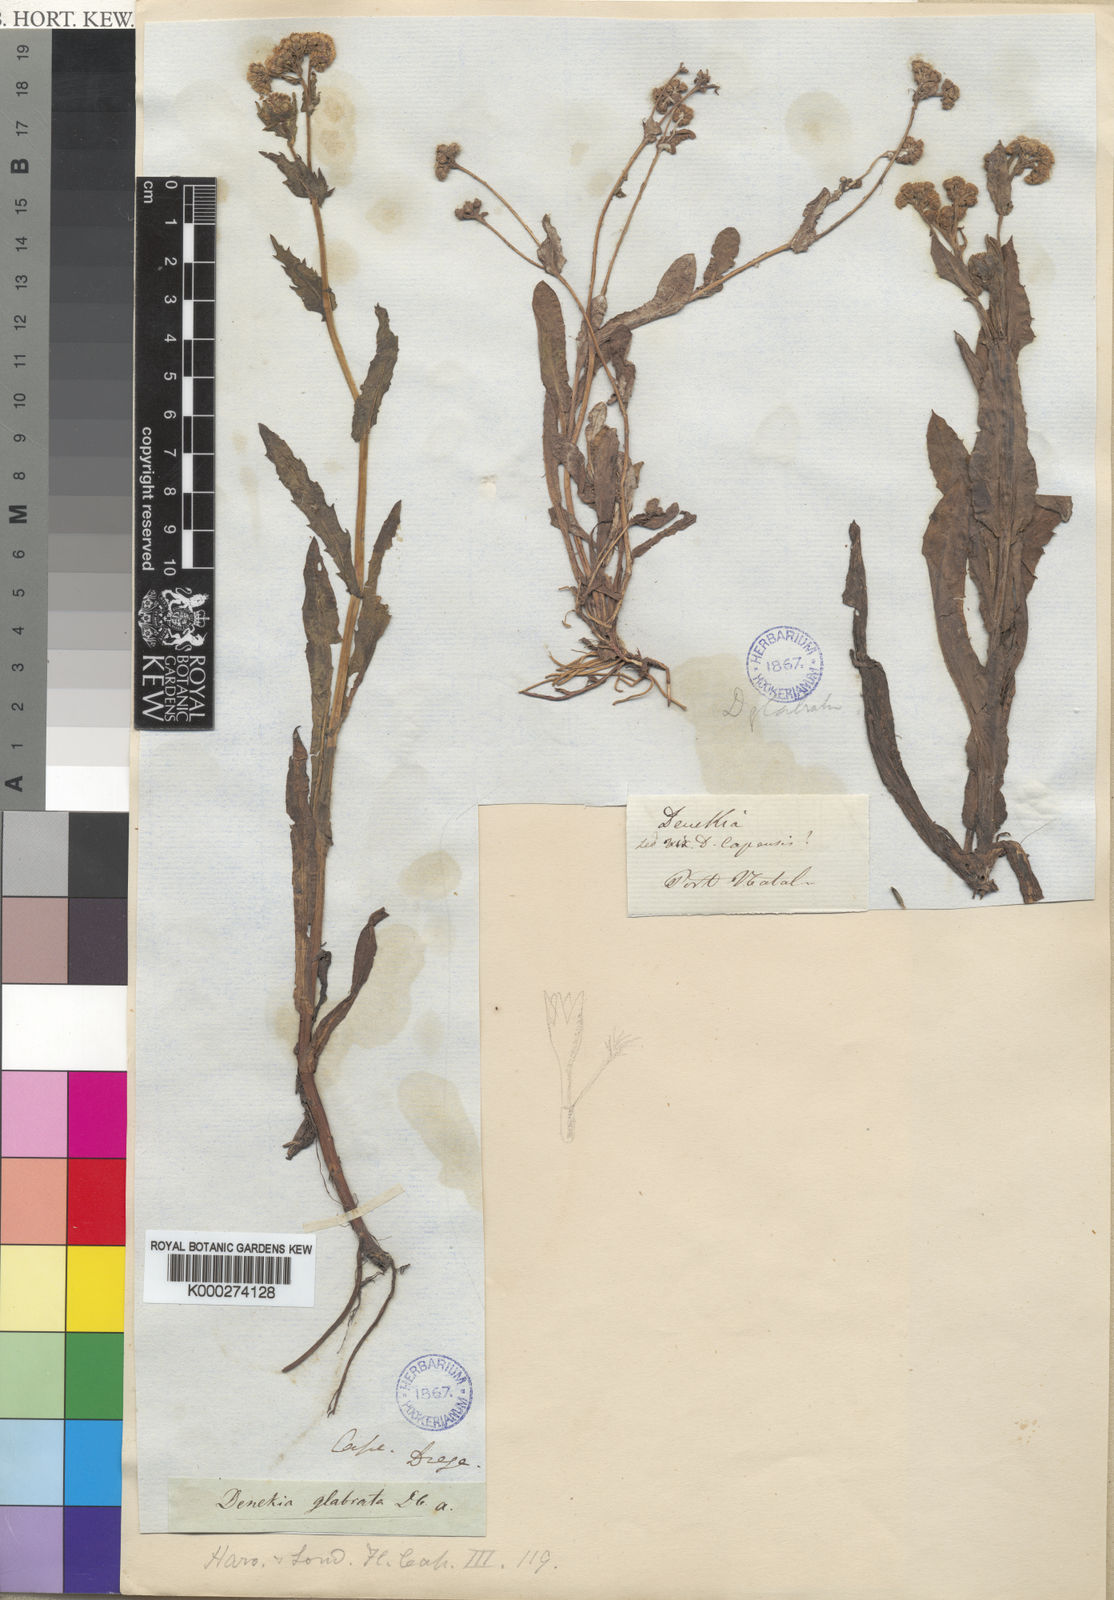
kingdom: Plantae
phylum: Tracheophyta
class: Magnoliopsida
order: Asterales
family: Asteraceae
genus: Denekia
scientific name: Denekia capensis
